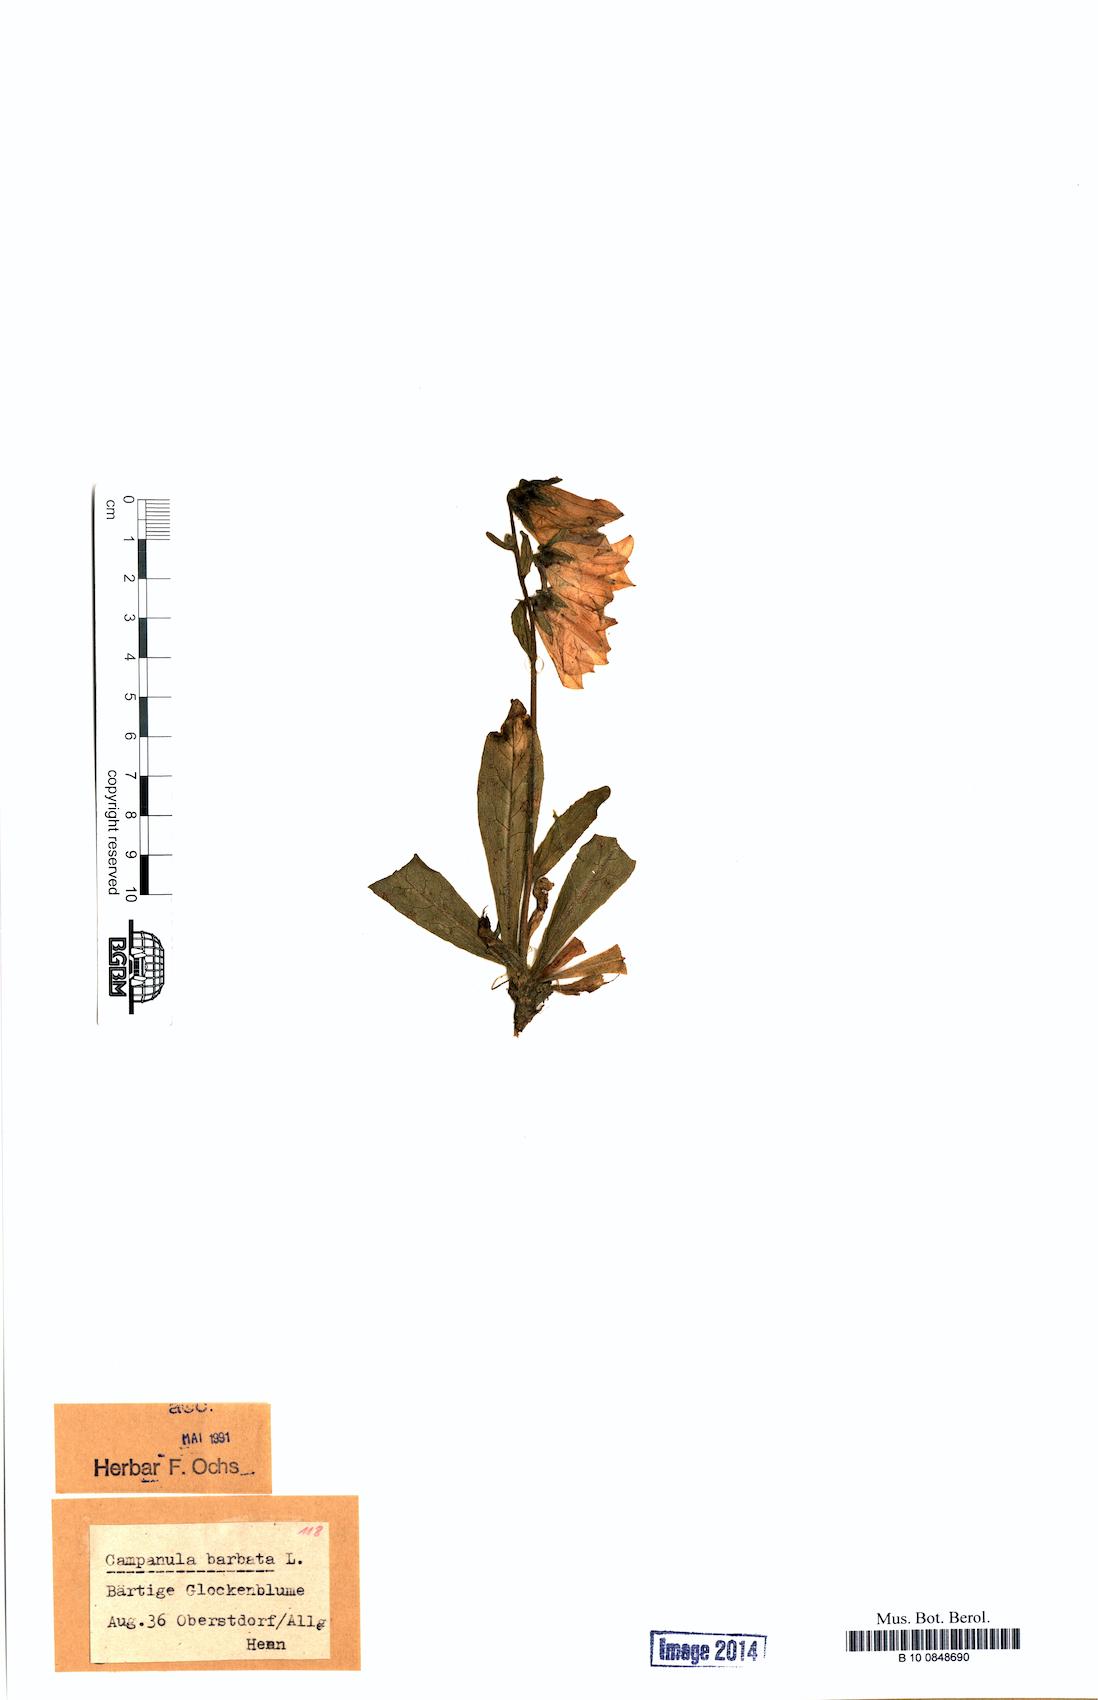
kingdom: Plantae
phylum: Tracheophyta
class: Magnoliopsida
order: Asterales
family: Campanulaceae
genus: Campanula
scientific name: Campanula barbata
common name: Bearded bellflower
